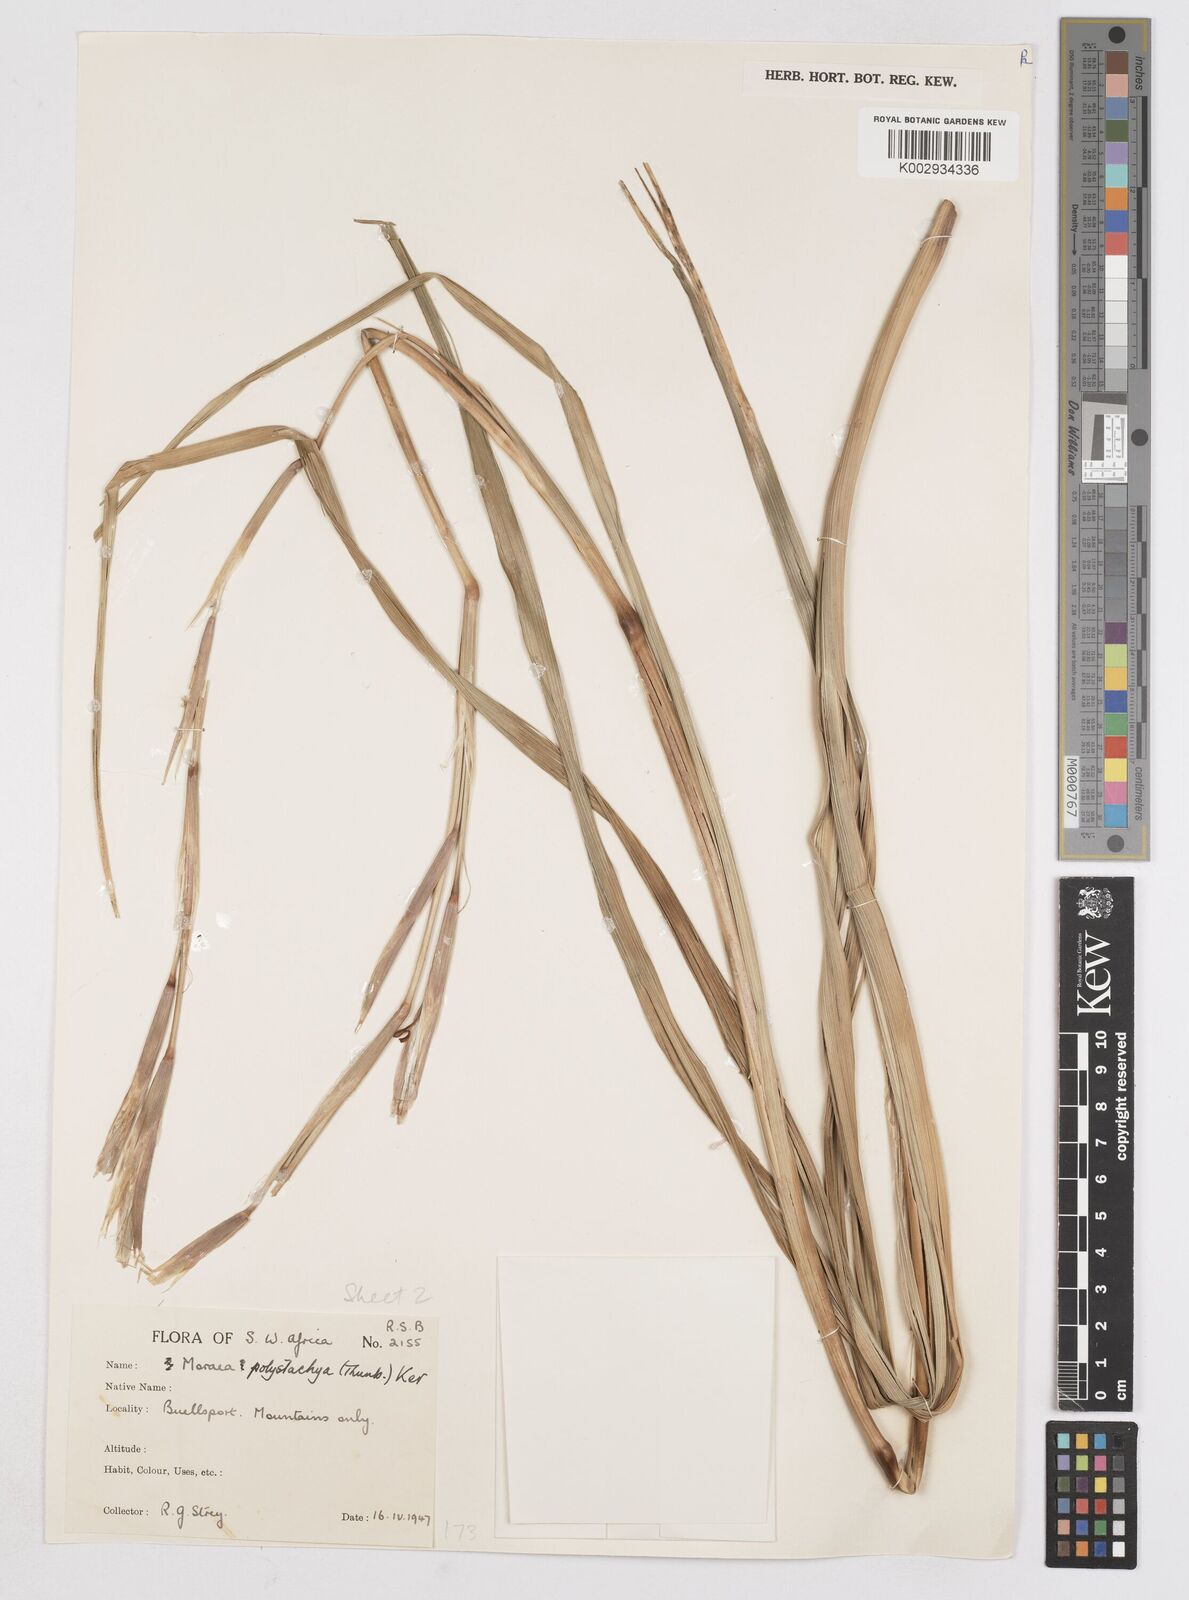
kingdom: Plantae
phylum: Tracheophyta
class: Liliopsida
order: Asparagales
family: Iridaceae
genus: Moraea
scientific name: Moraea polystachya
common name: Blue-tulip
